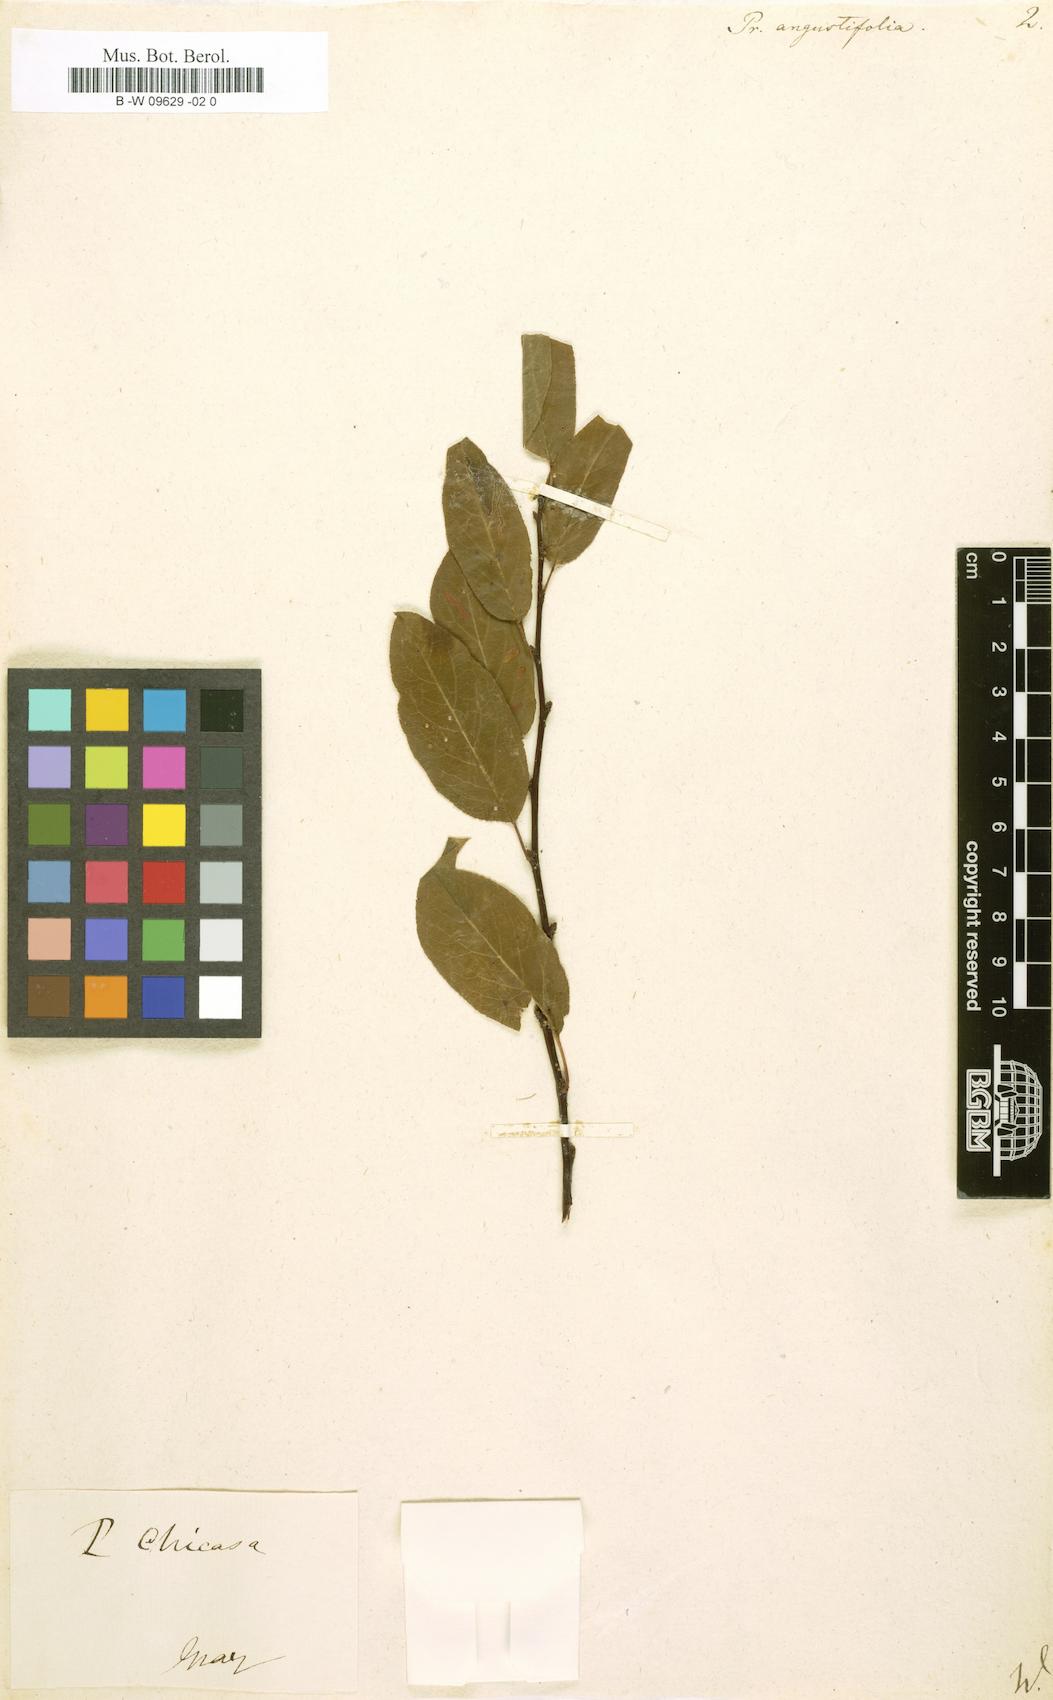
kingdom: Plantae
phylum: Tracheophyta
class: Magnoliopsida
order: Rosales
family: Rosaceae
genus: Prunus
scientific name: Prunus angustifolia
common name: Cherokee plum
